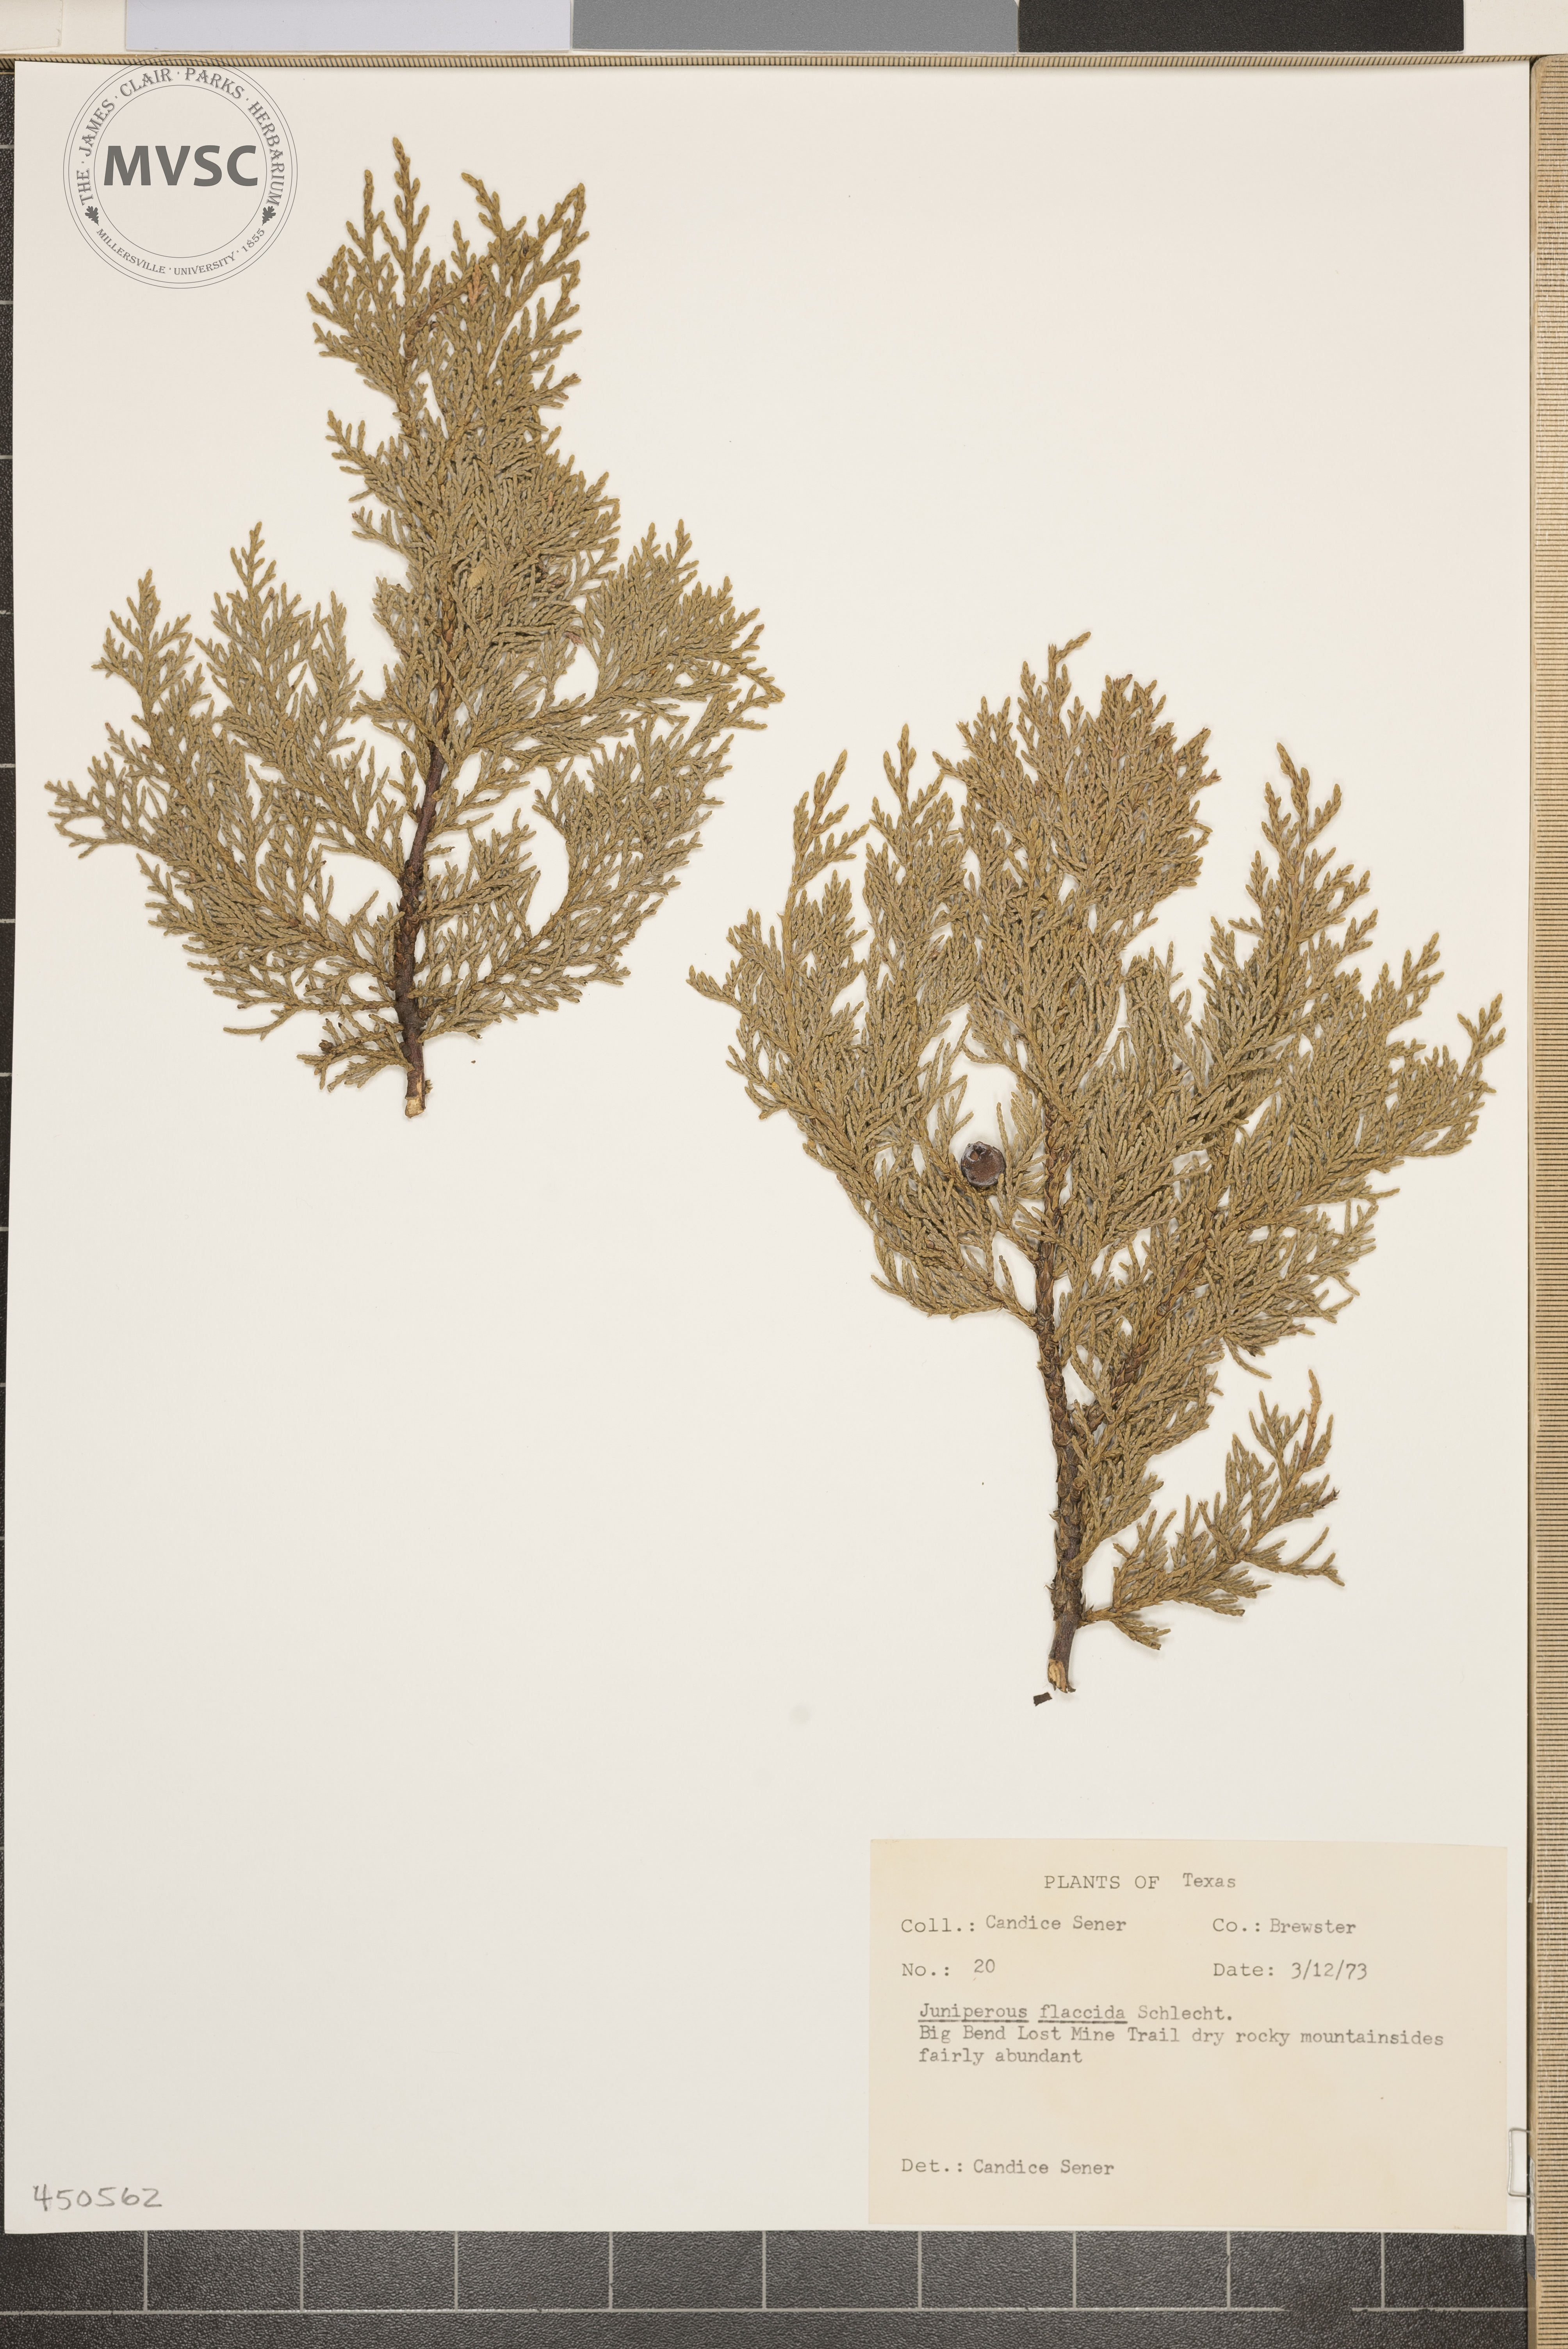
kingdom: Plantae
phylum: Tracheophyta
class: Pinopsida
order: Pinales
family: Cupressaceae
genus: Juniperus
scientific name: Juniperus flaccida
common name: Drooping juniper
